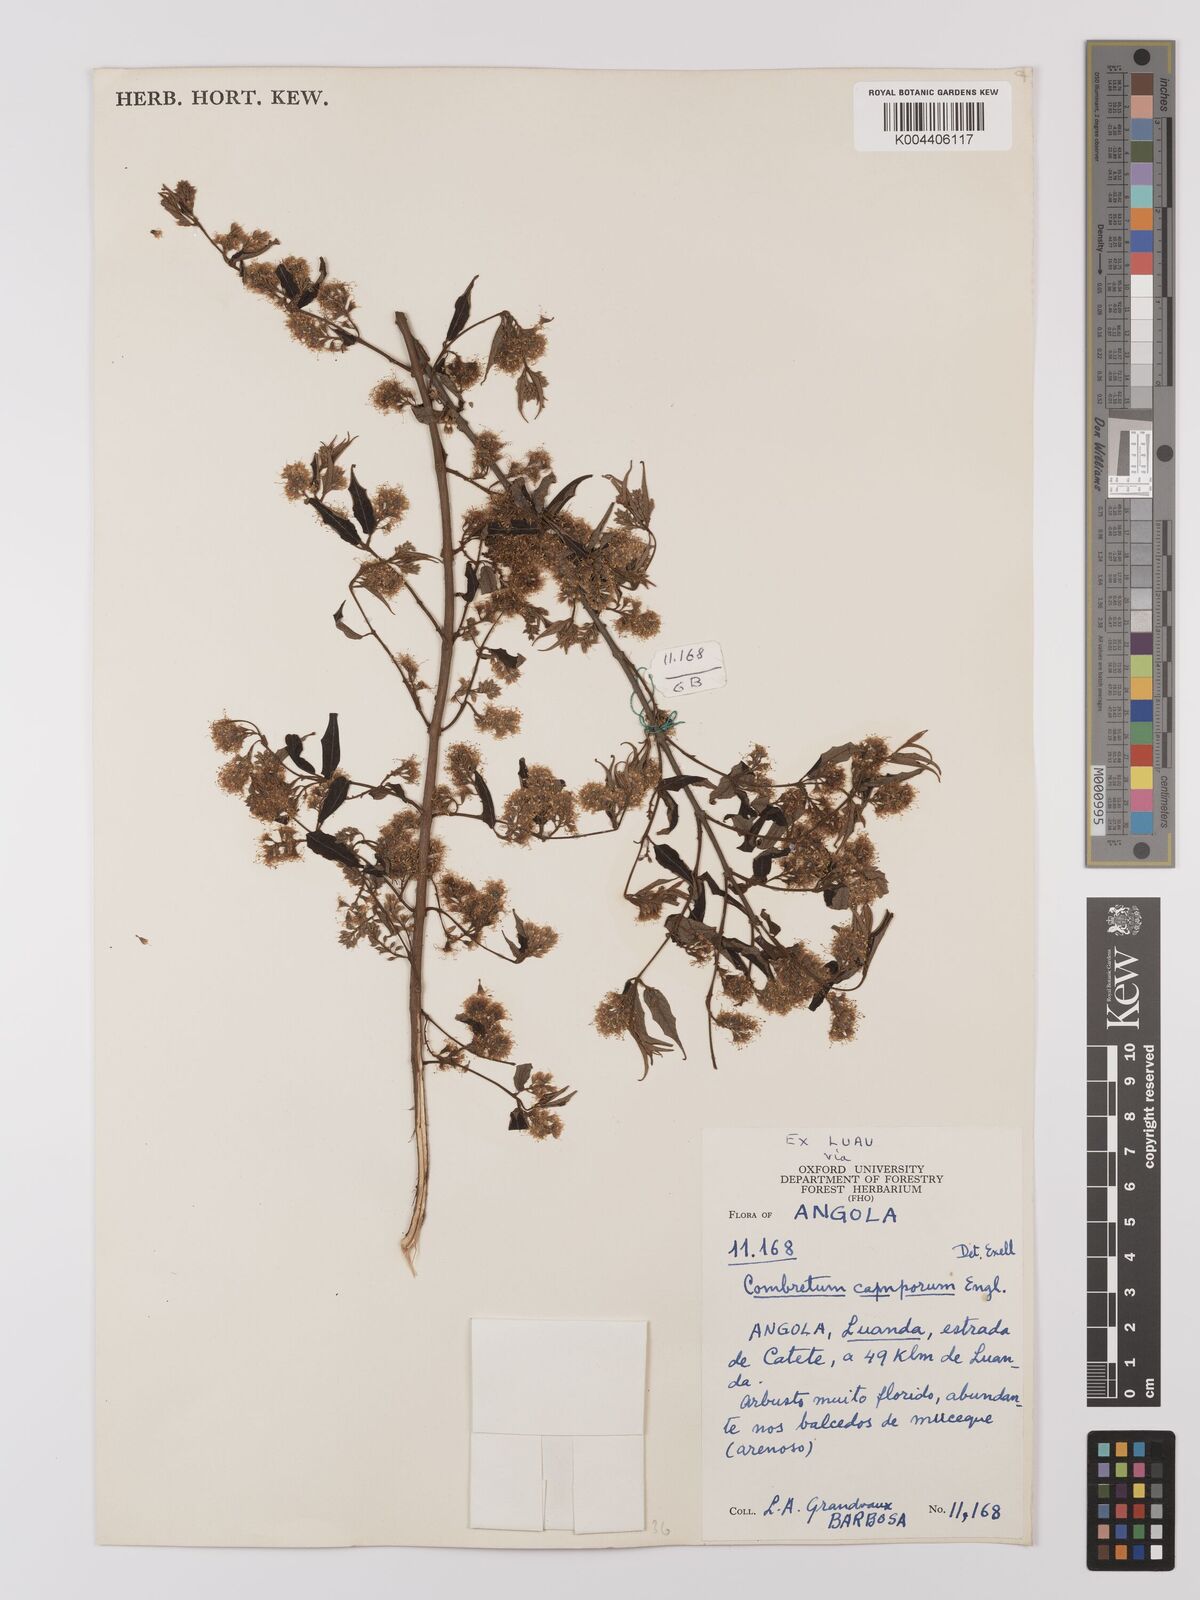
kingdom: Plantae
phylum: Tracheophyta
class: Magnoliopsida
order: Myrtales
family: Combretaceae
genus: Combretum
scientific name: Combretum camporum
